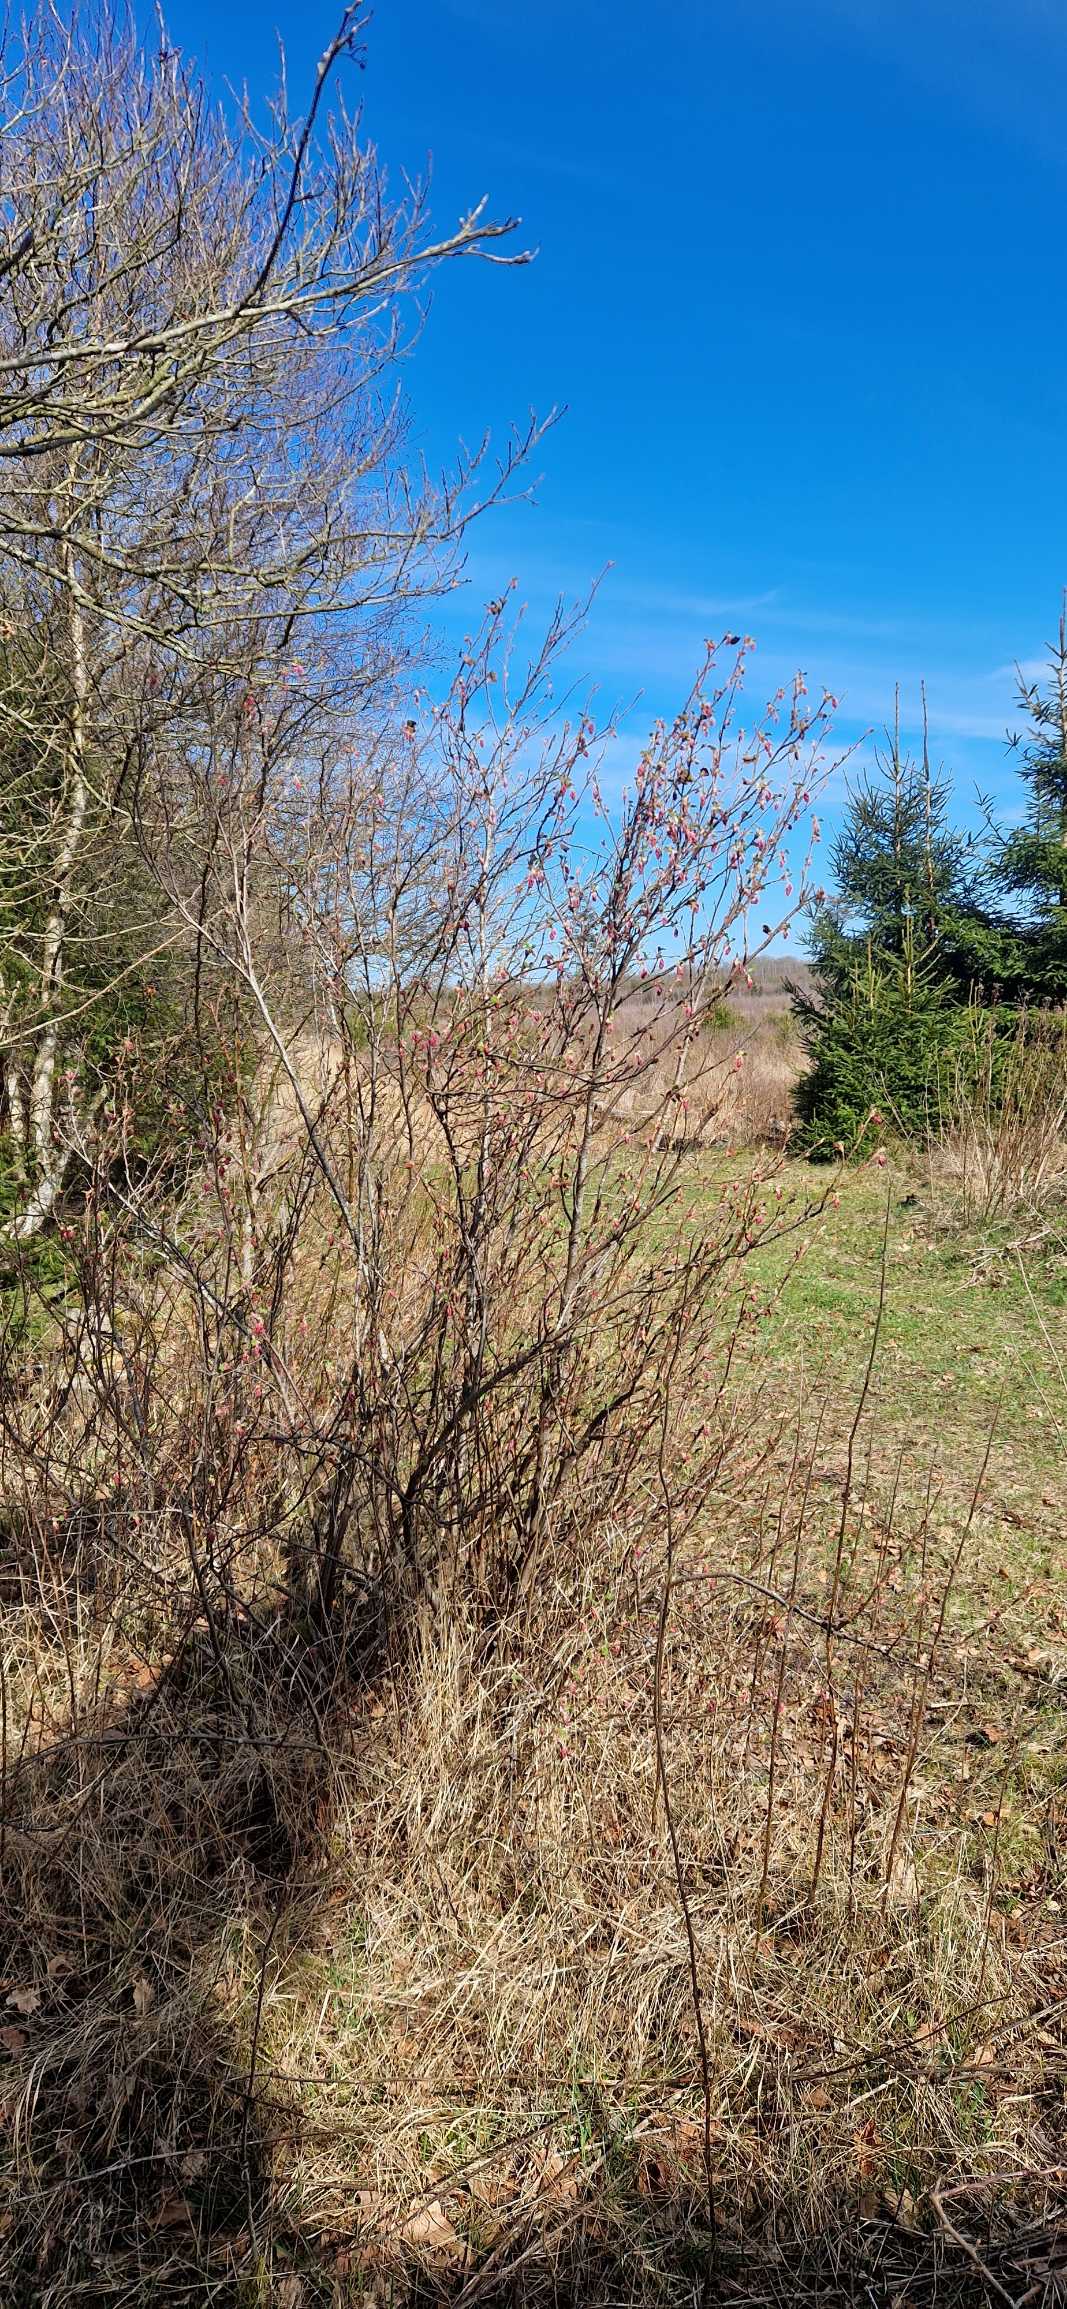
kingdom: Plantae
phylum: Tracheophyta
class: Magnoliopsida
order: Saxifragales
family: Grossulariaceae
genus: Ribes
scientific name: Ribes sanguineum
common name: Blod-ribs
